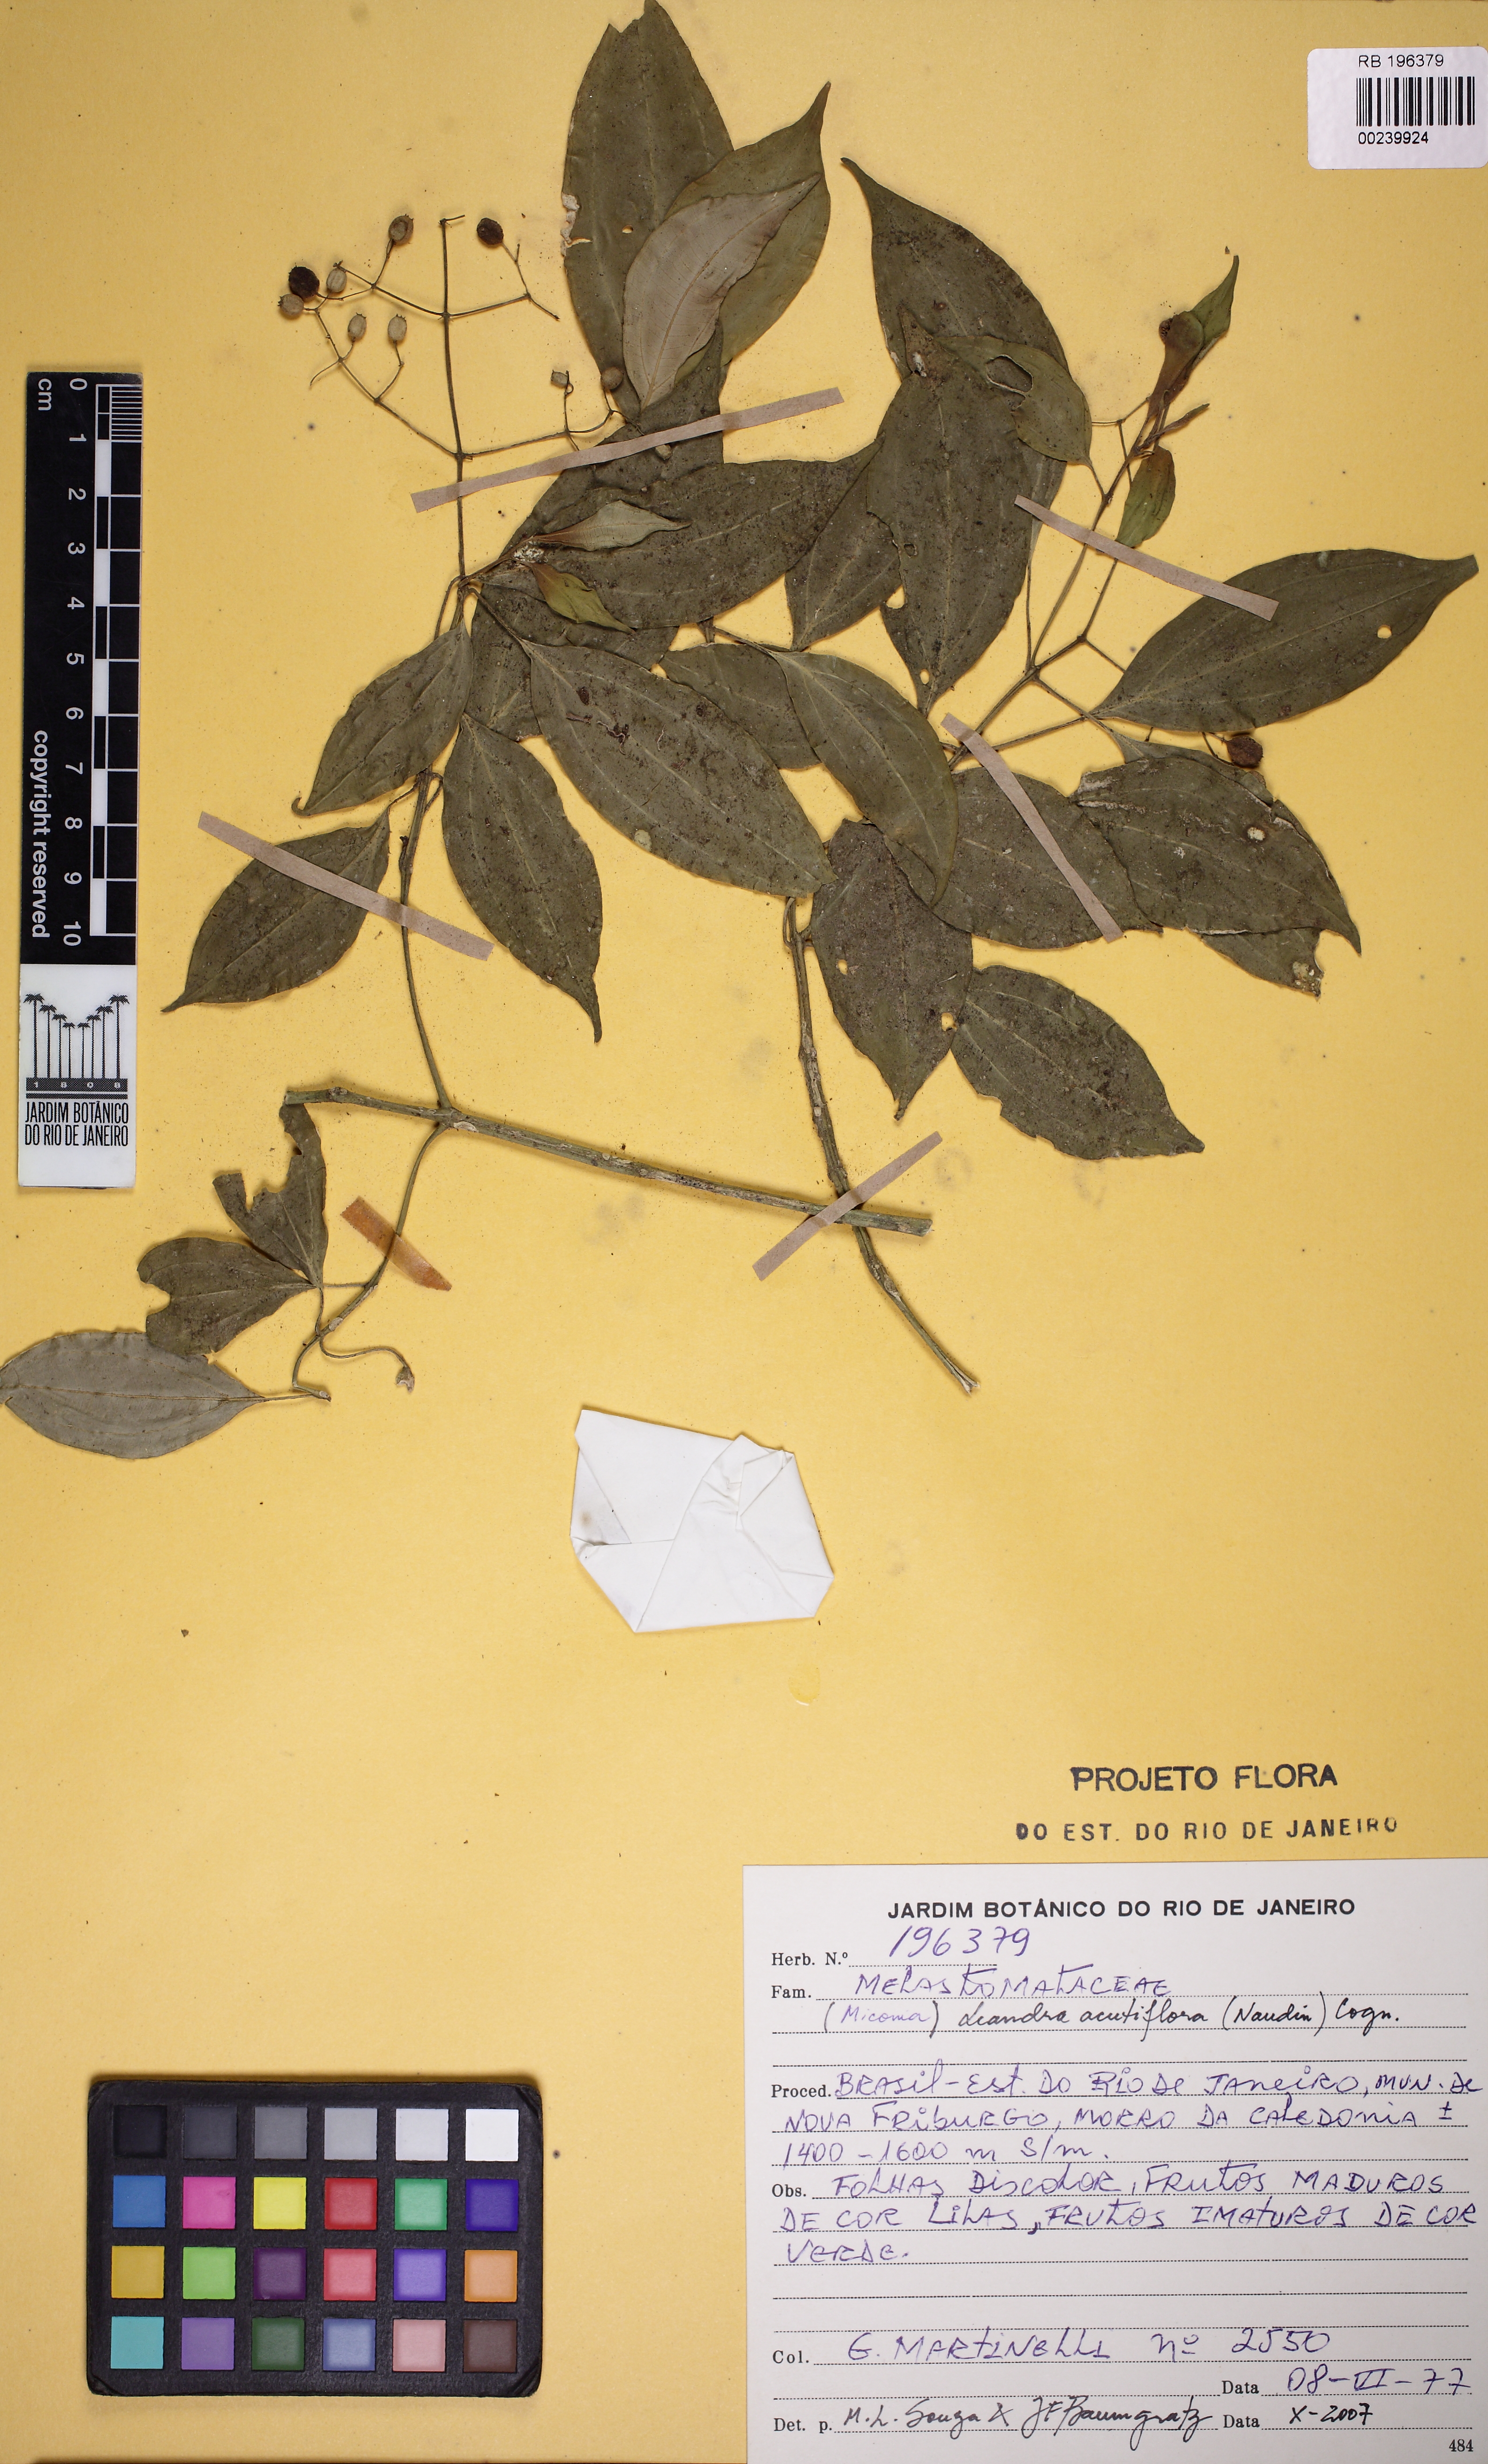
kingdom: Plantae
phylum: Tracheophyta
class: Magnoliopsida
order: Myrtales
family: Melastomataceae
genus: Miconia
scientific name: Miconia acutiflora
